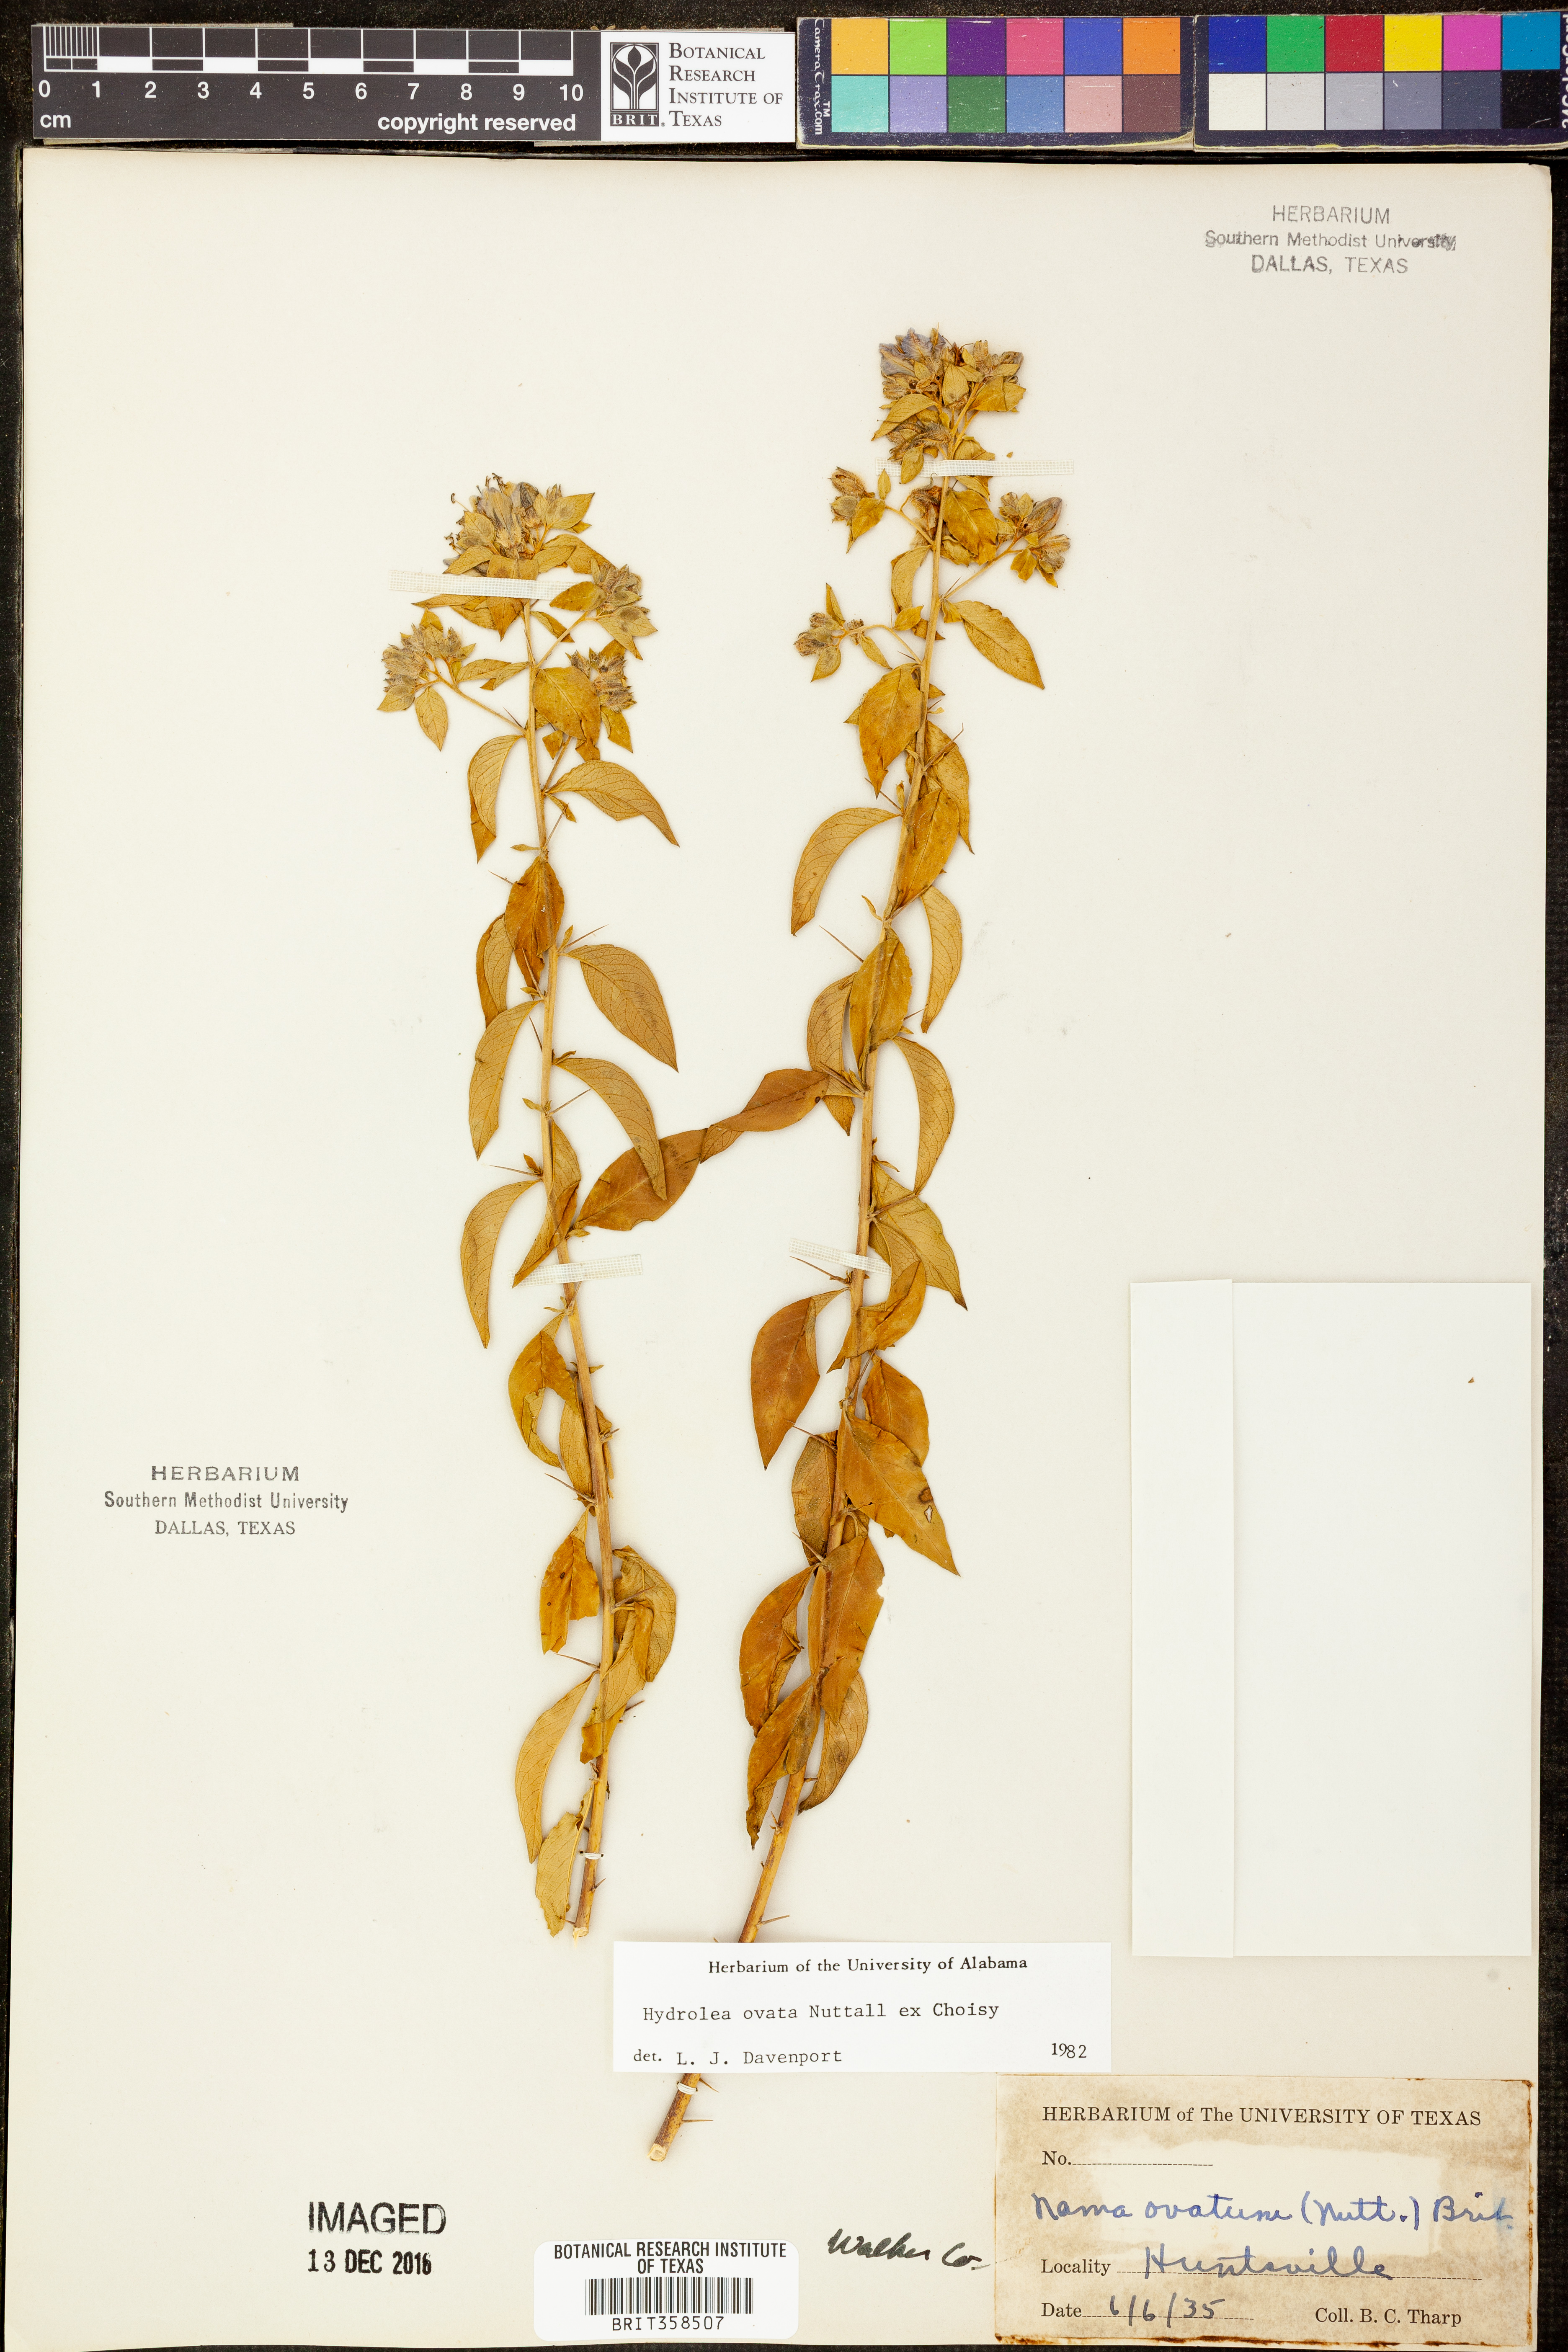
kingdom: Plantae
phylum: Tracheophyta
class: Magnoliopsida
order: Solanales
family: Hydroleaceae
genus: Hydrolea
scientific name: Hydrolea ovata
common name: Ovate false fiddleleaf
